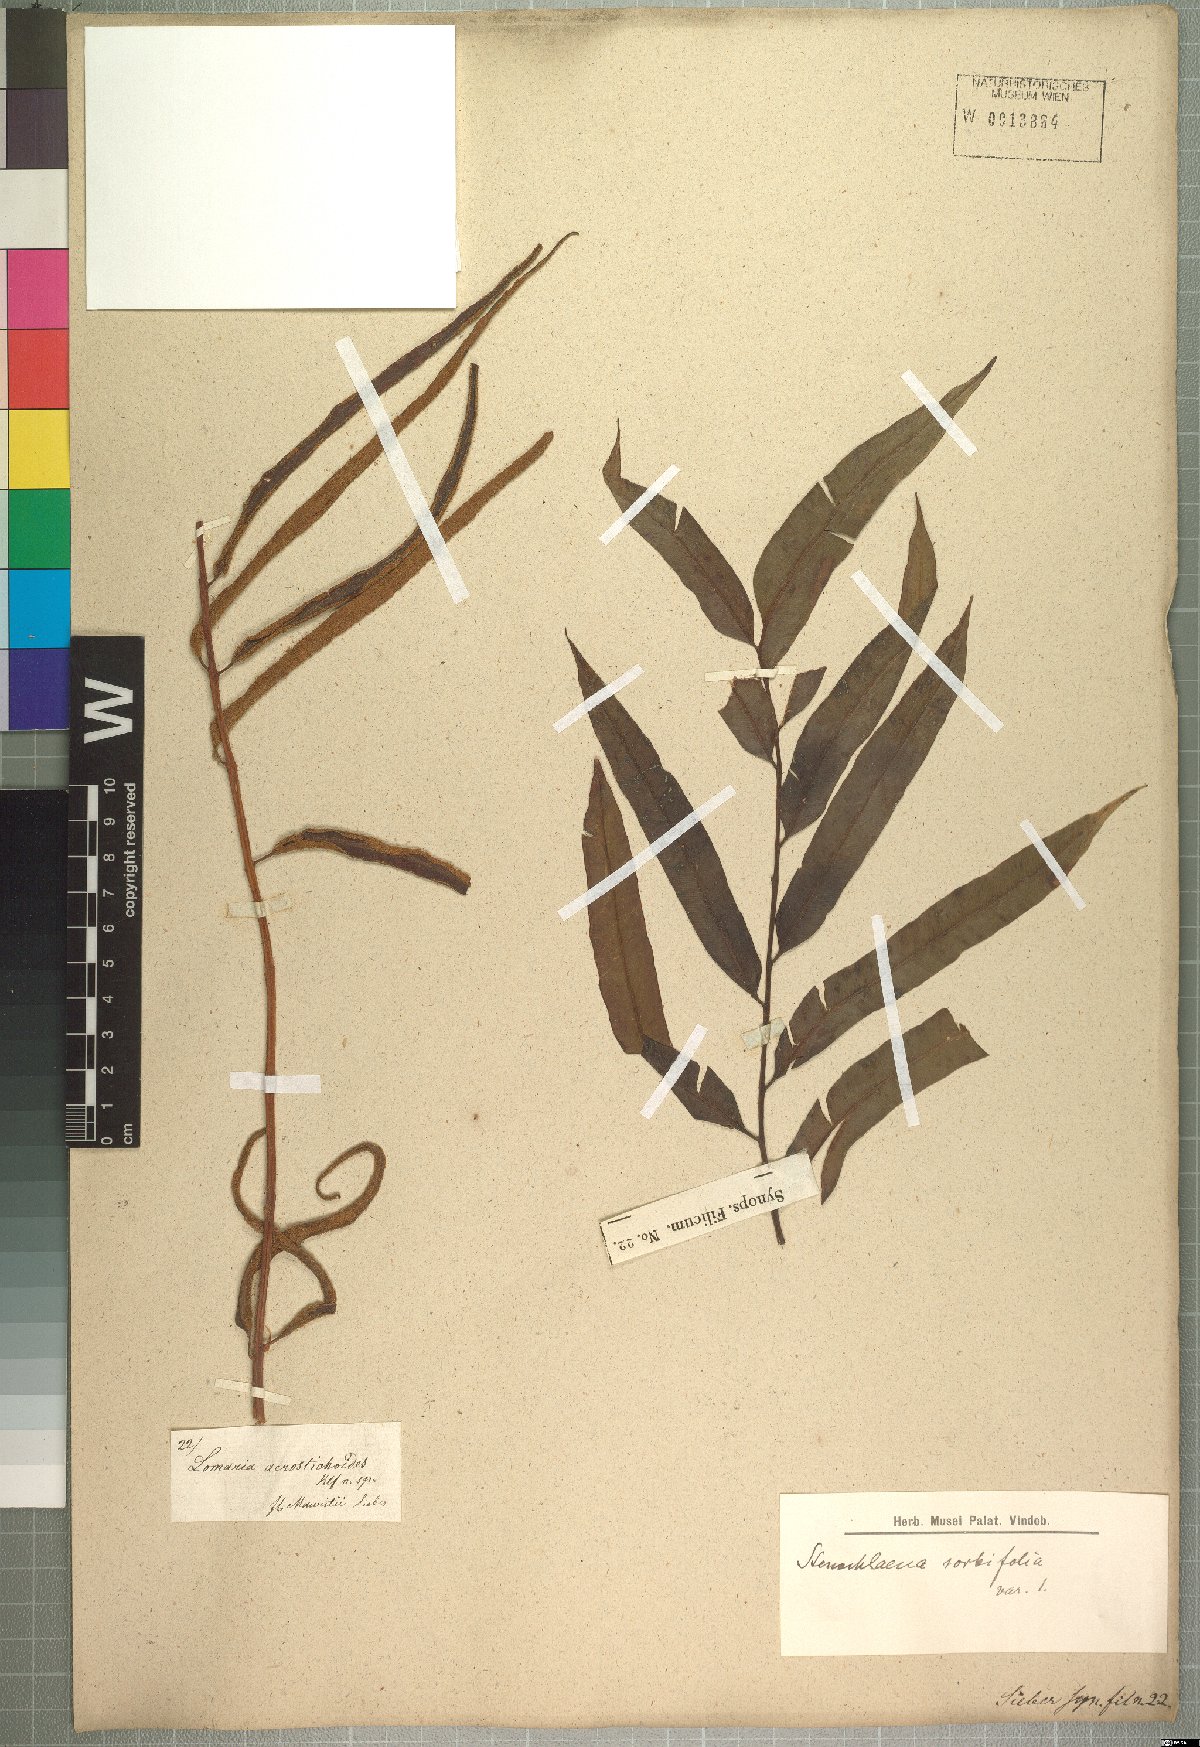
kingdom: Plantae
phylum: Tracheophyta
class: Polypodiopsida
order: Polypodiales
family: Lomariopsidaceae
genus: Lomariopsis
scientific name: Lomariopsis variabilis
